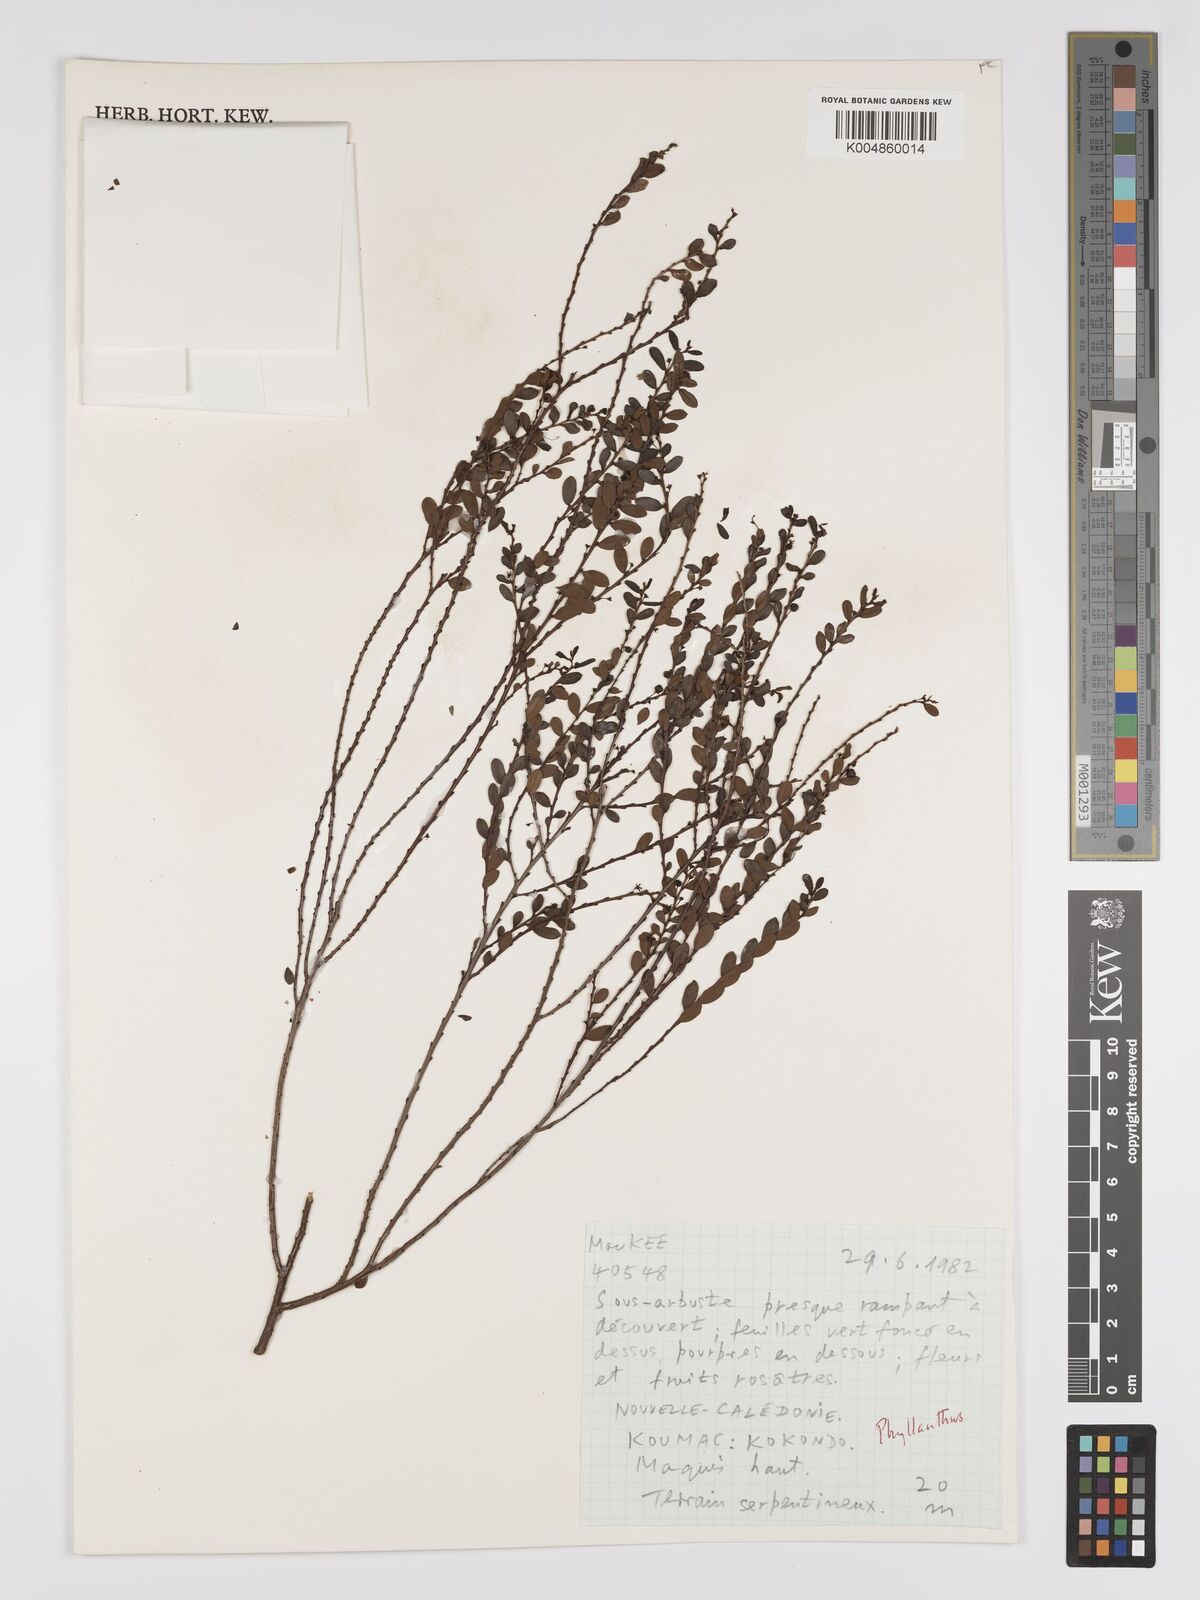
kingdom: Plantae
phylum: Tracheophyta
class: Magnoliopsida
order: Malpighiales
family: Phyllanthaceae
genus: Phyllanthus
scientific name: Phyllanthus
